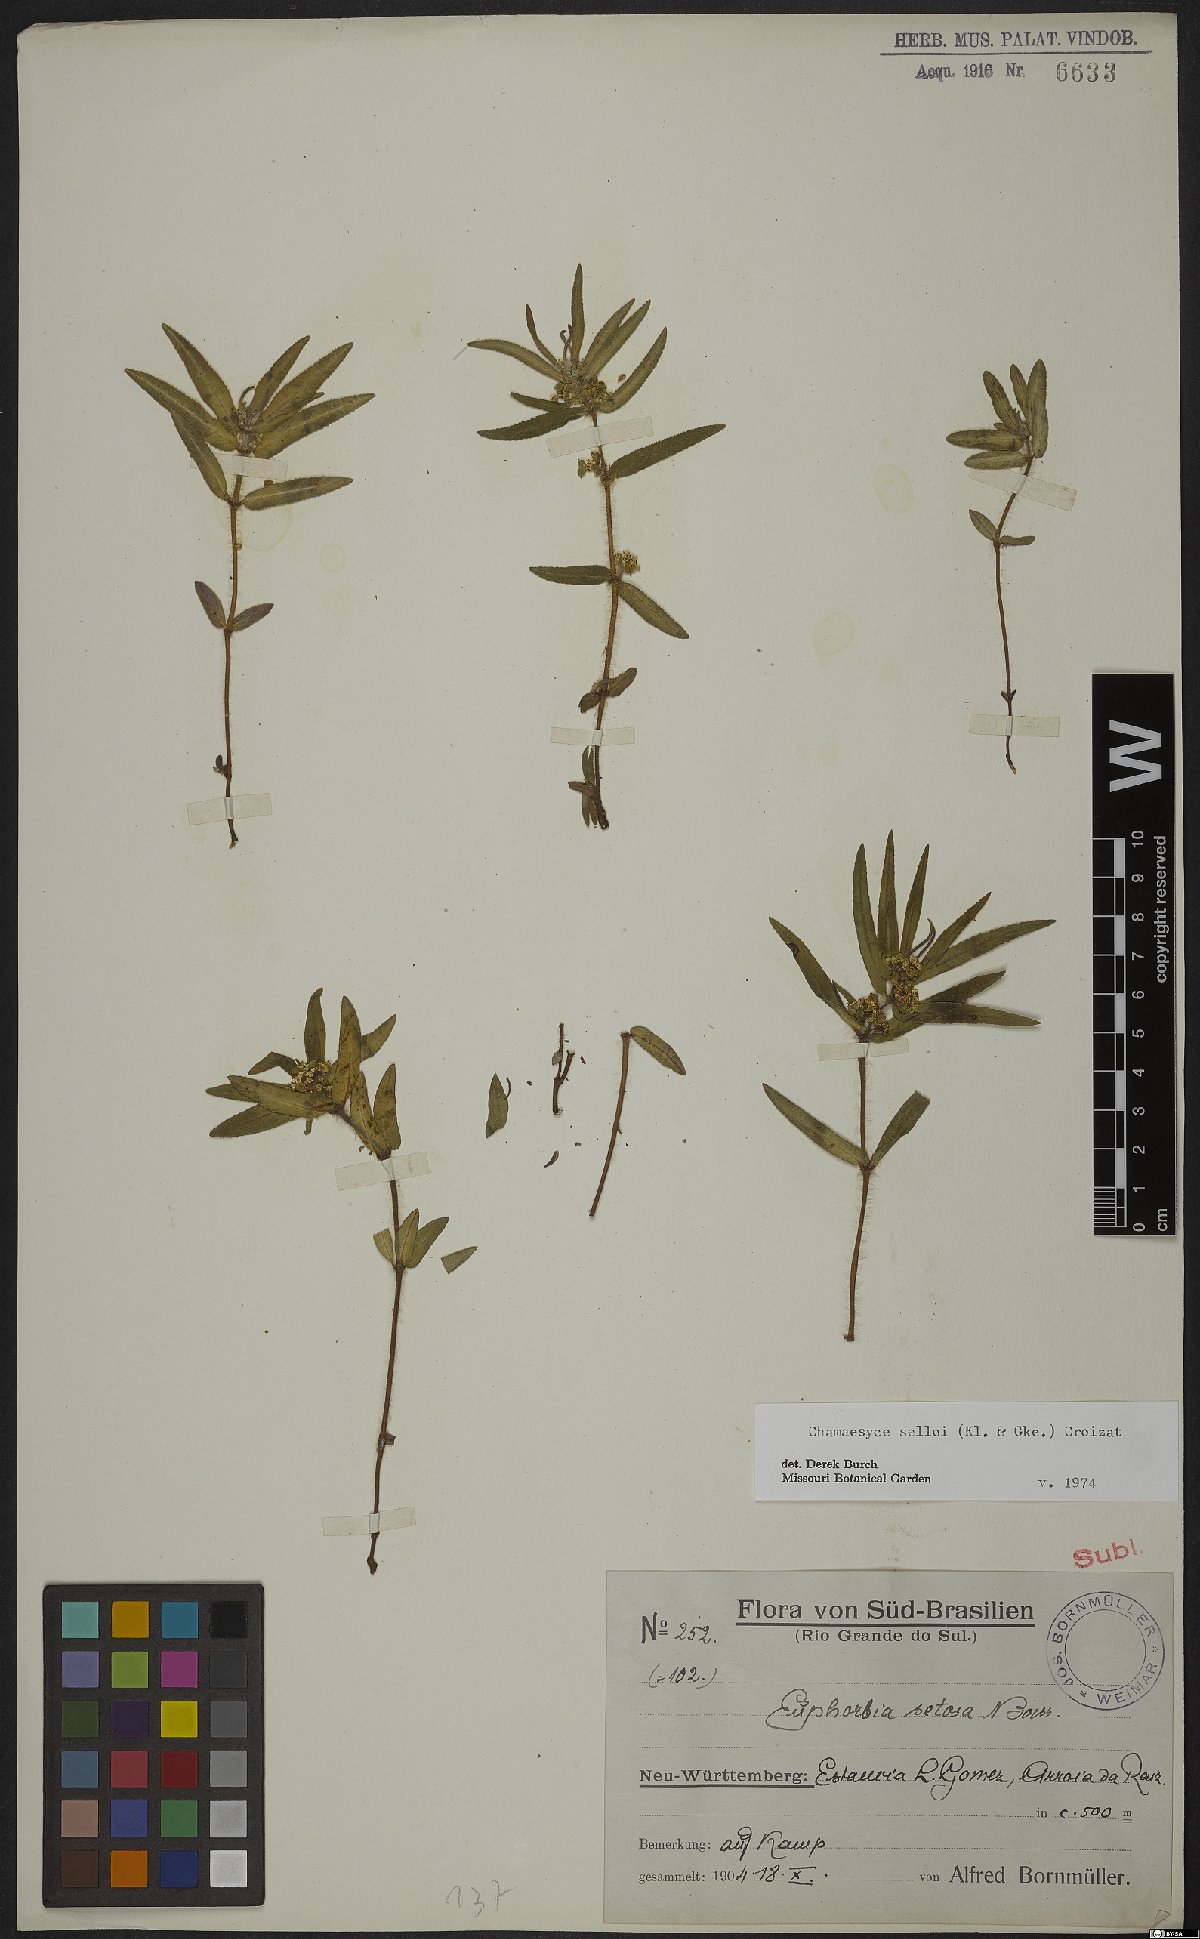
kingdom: Plantae
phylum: Tracheophyta
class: Magnoliopsida
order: Malpighiales
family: Euphorbiaceae
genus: Euphorbia
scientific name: Euphorbia selloi
